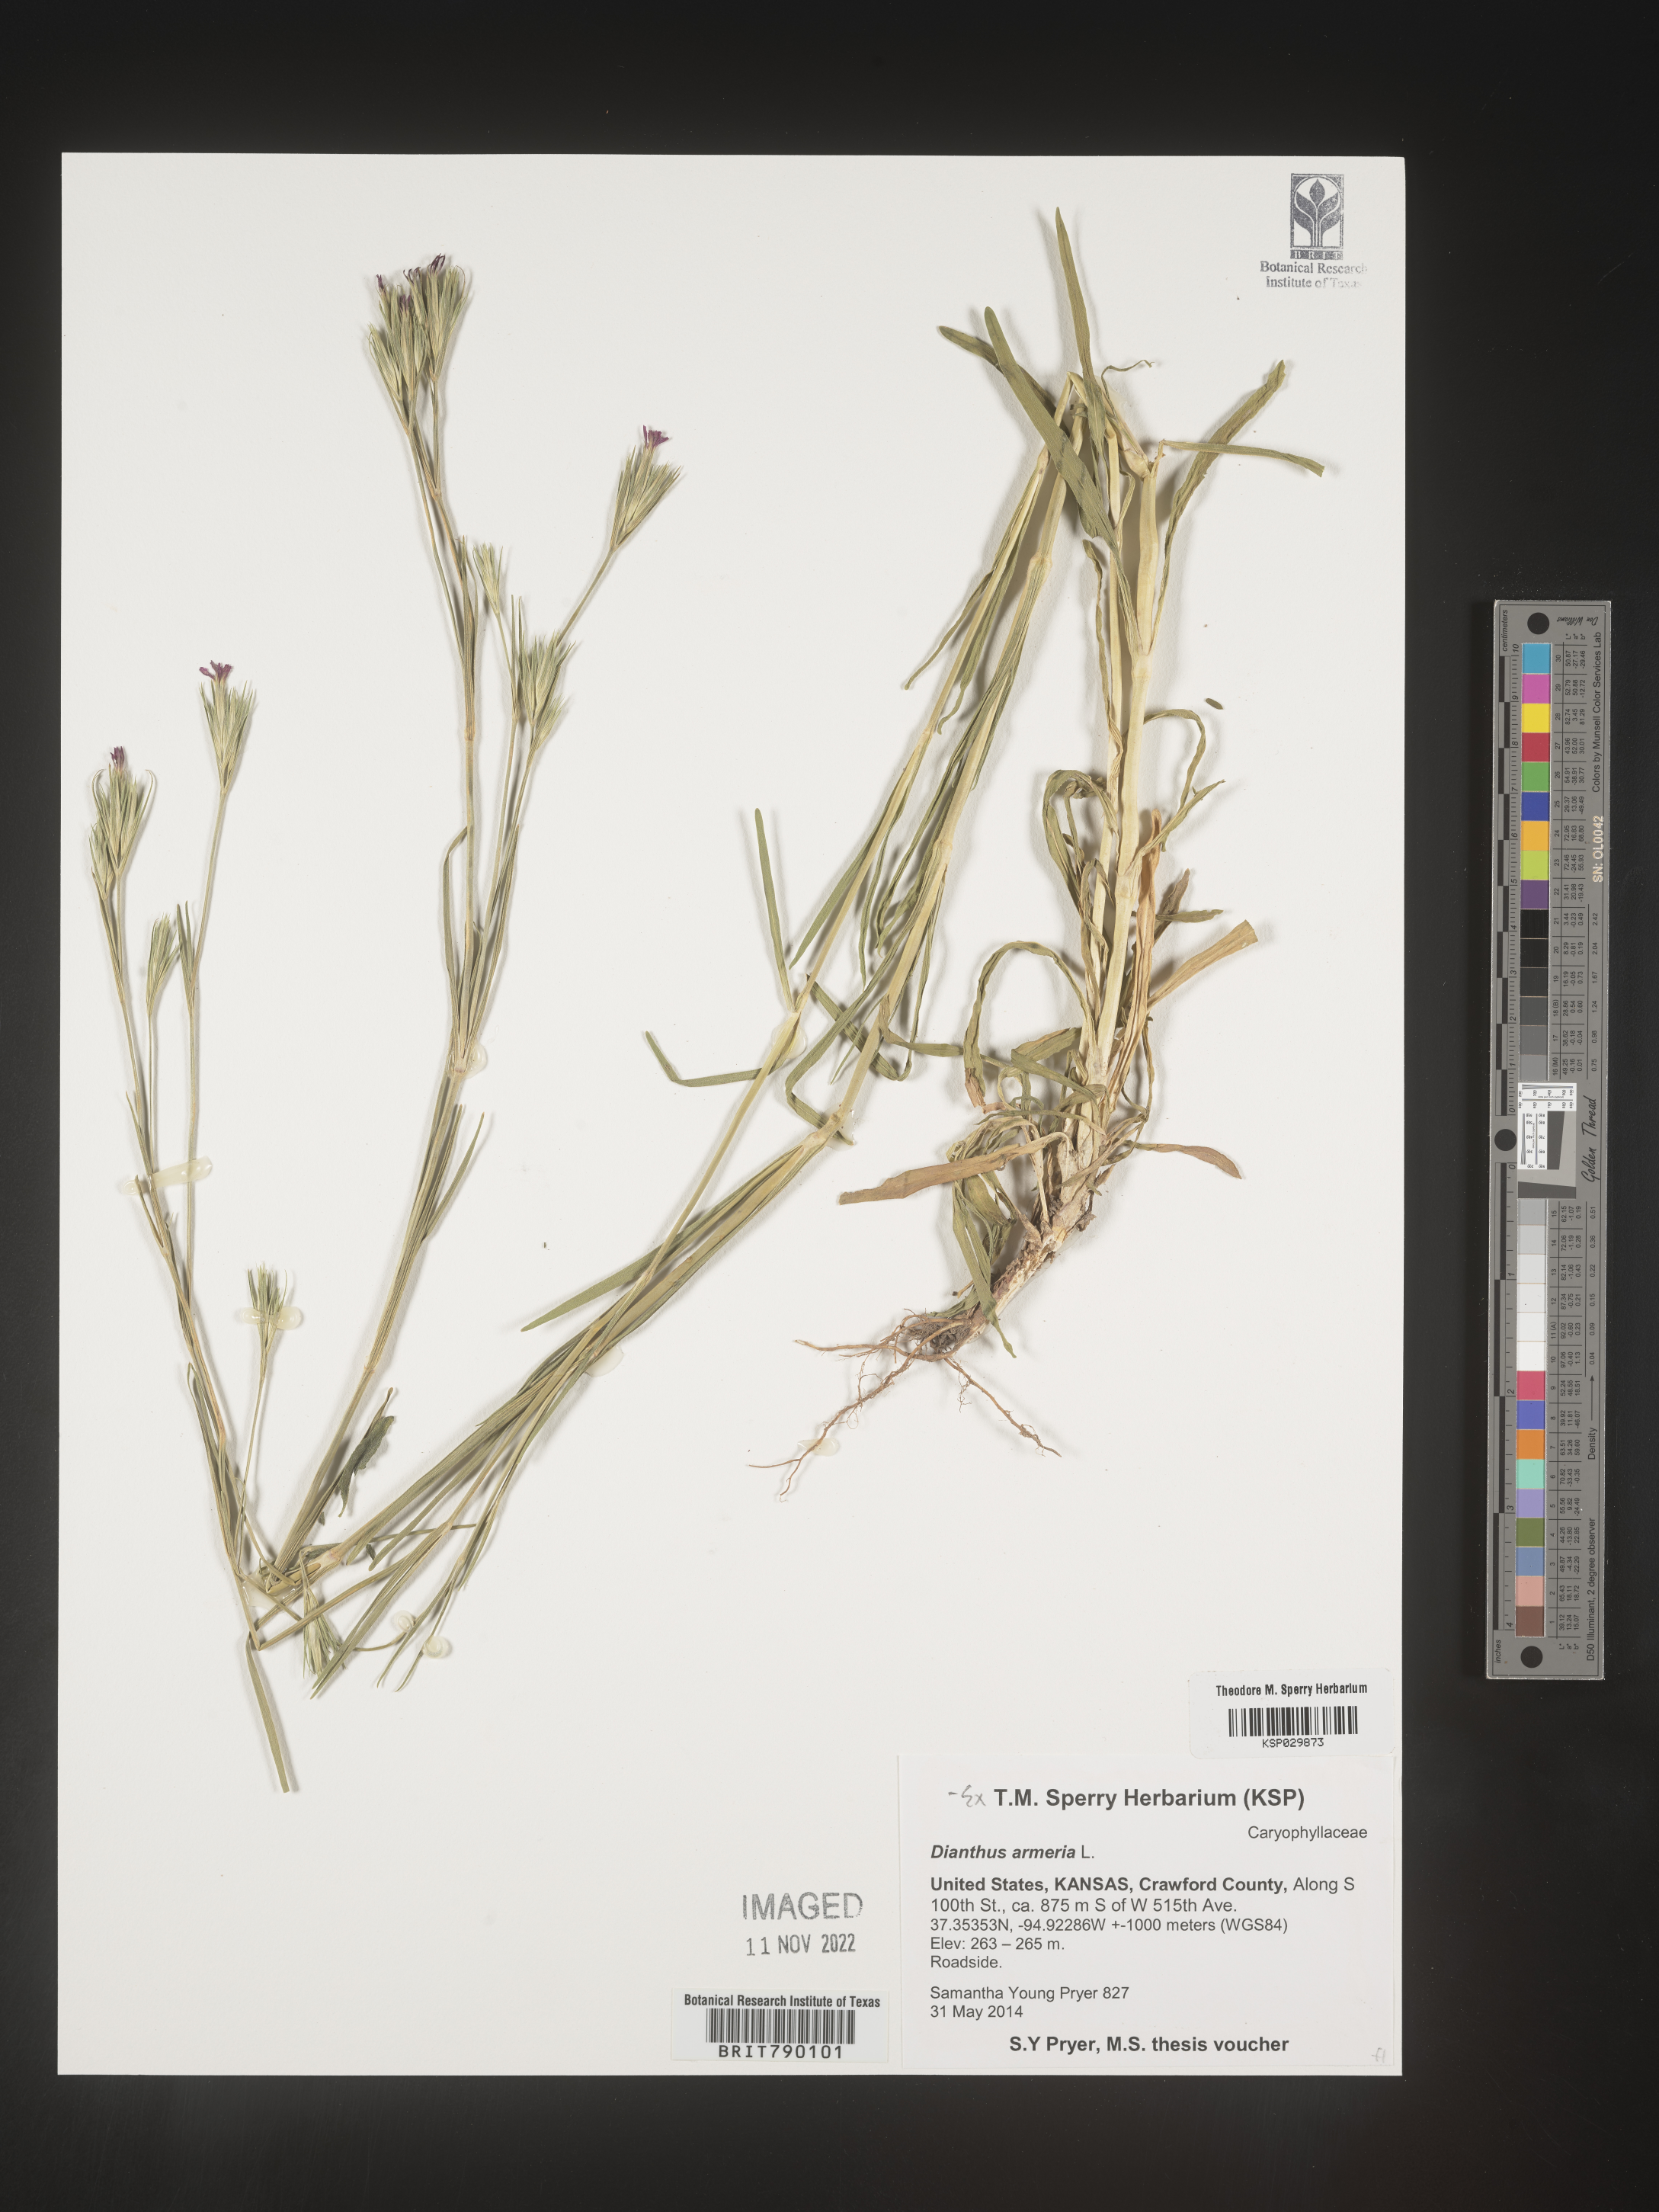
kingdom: Plantae
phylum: Tracheophyta
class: Magnoliopsida
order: Caryophyllales
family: Caryophyllaceae
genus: Dianthus
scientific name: Dianthus armeria
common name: Deptford pink
